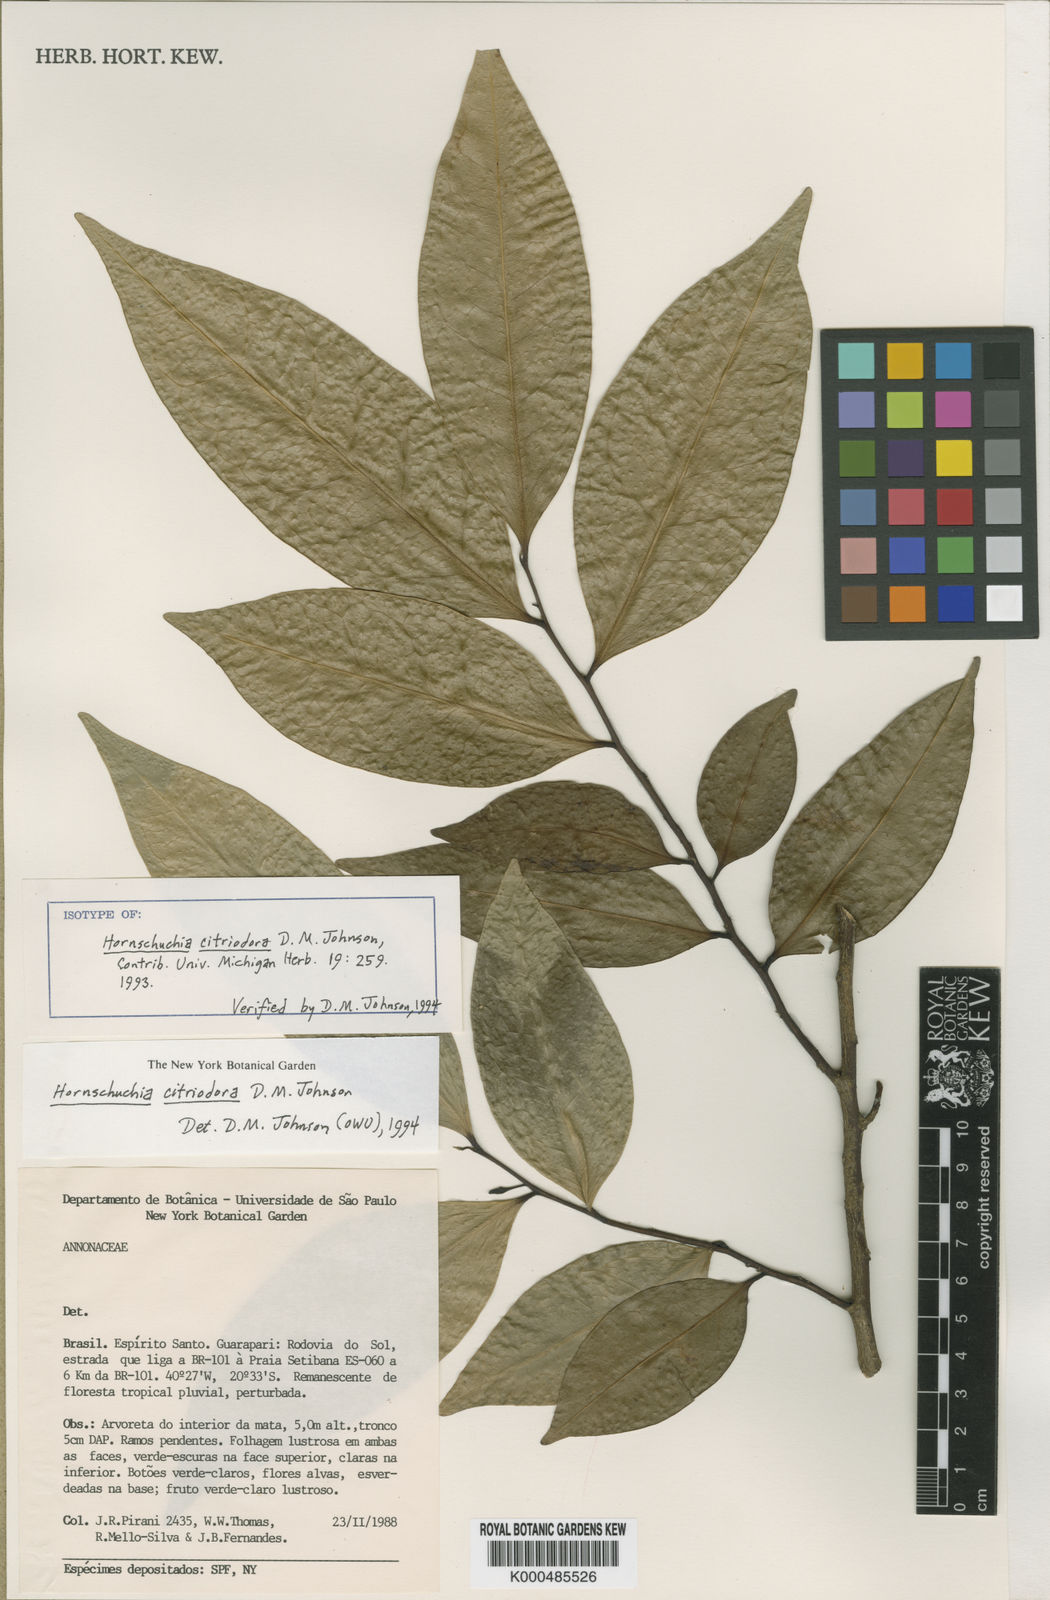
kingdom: Plantae
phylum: Tracheophyta
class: Magnoliopsida
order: Magnoliales
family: Annonaceae
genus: Hornschuchia
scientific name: Hornschuchia citriodora
